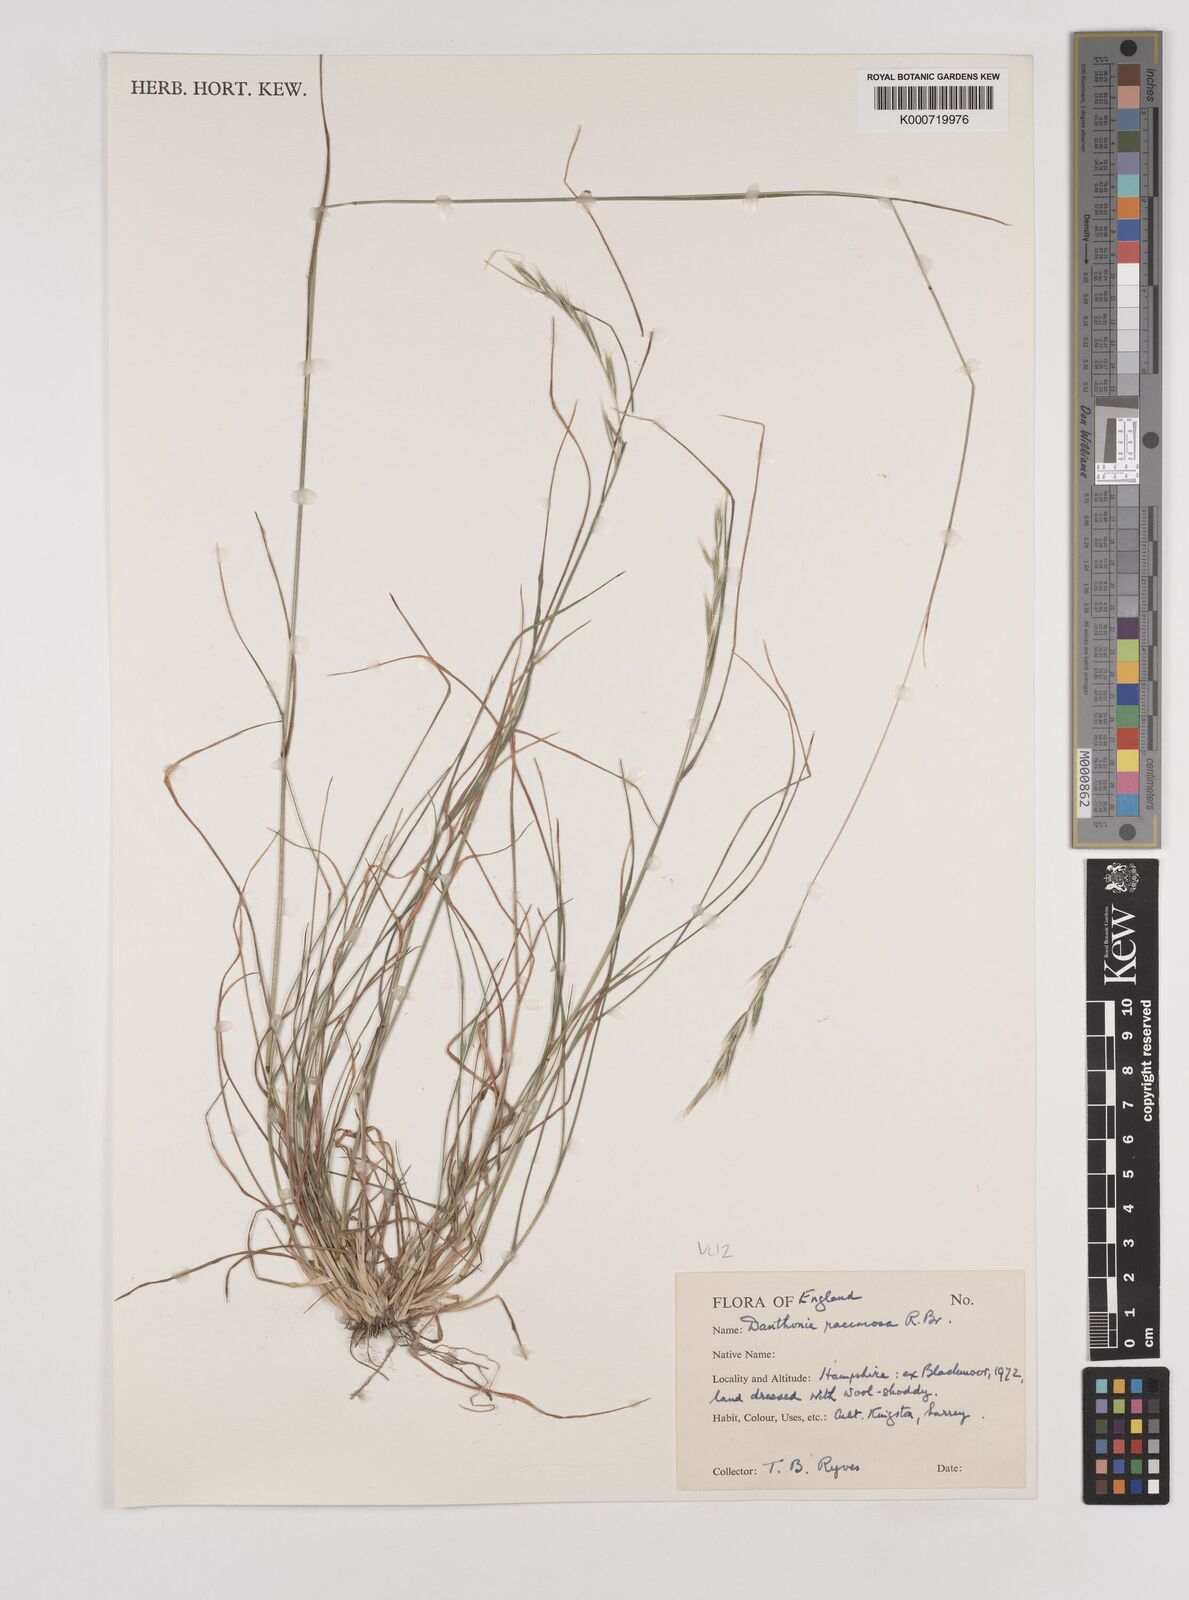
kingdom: Plantae
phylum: Tracheophyta
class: Liliopsida
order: Poales
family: Poaceae
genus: Rytidosperma
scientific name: Rytidosperma racemosum
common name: Wallaby-grass
